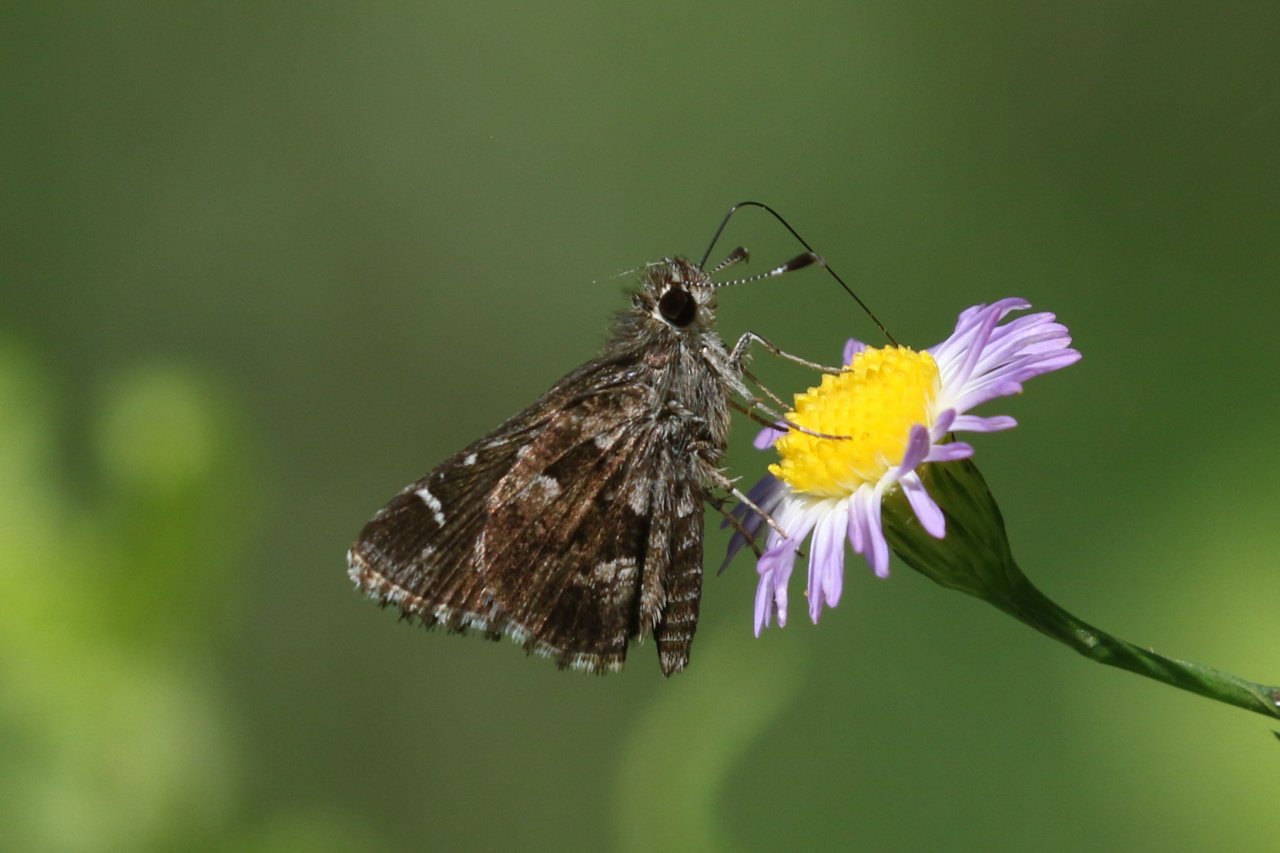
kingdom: Animalia
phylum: Arthropoda
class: Insecta
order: Lepidoptera
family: Hesperiidae
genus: Mastor
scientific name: Mastor nysa
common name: Nysa Roadside-Skipper
